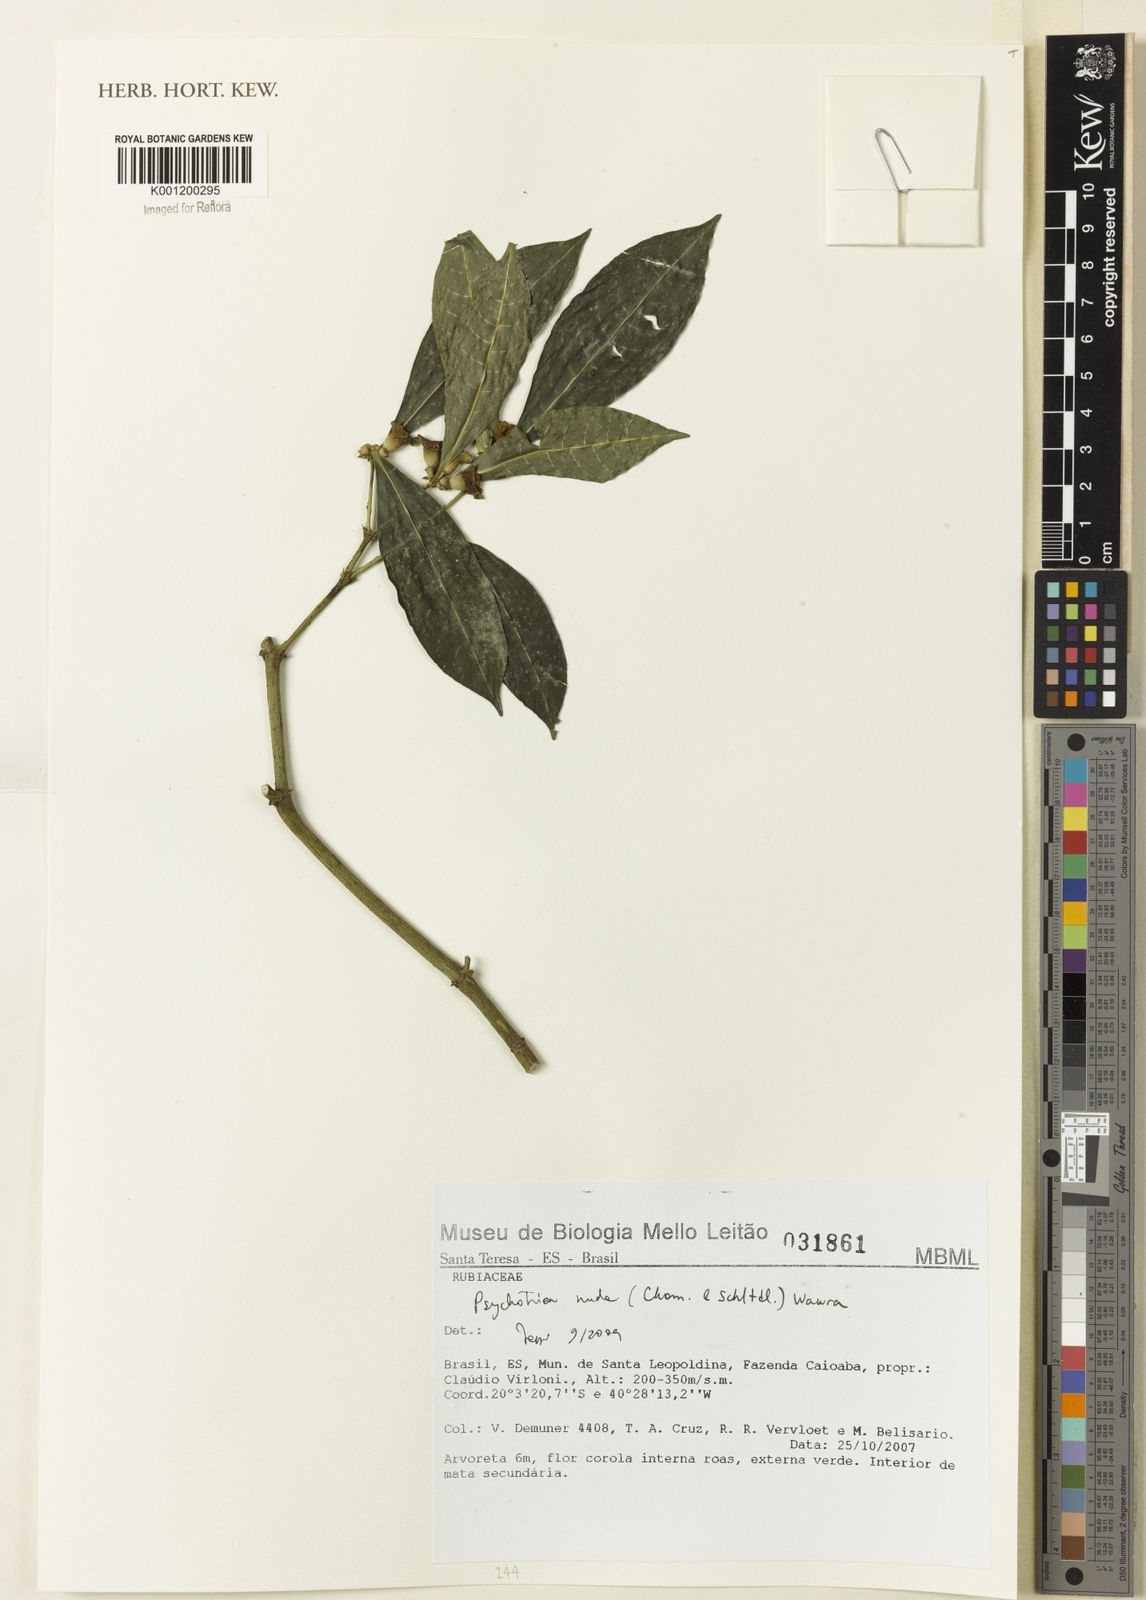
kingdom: Plantae
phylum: Tracheophyta
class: Magnoliopsida
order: Gentianales
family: Rubiaceae
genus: Psychotria
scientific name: Psychotria nuda
